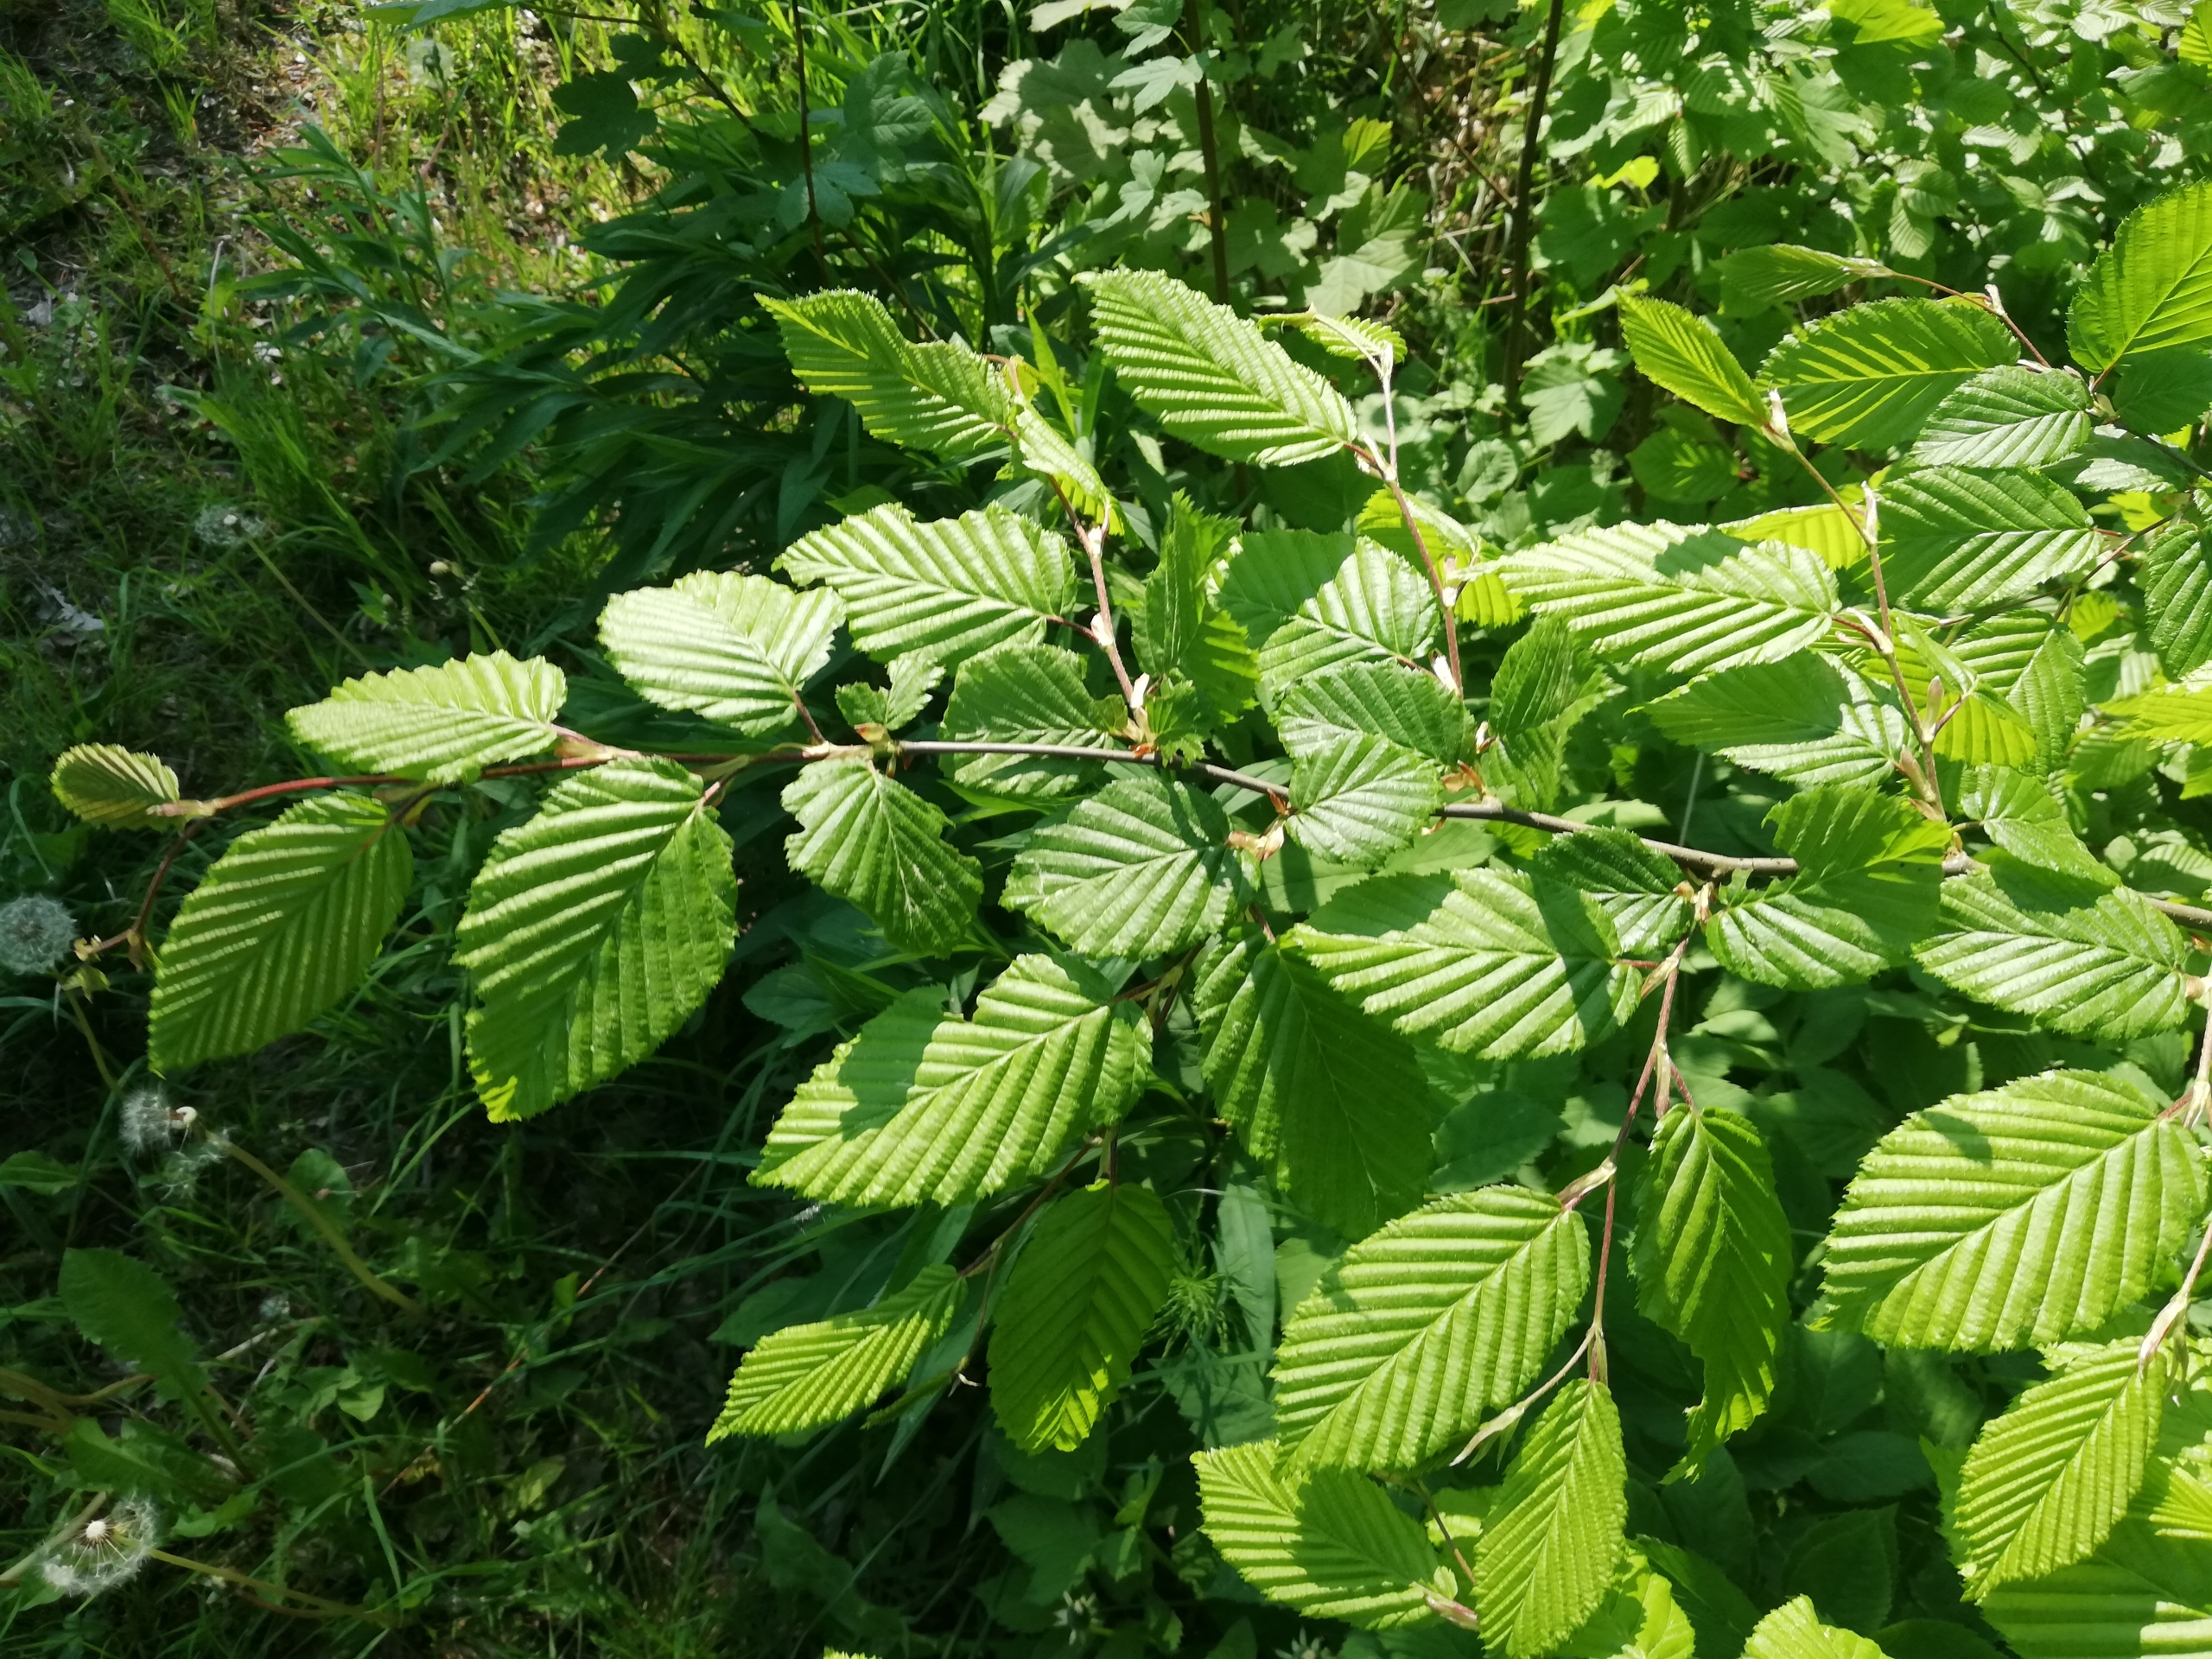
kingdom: Plantae
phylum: Tracheophyta
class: Magnoliopsida
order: Fagales
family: Betulaceae
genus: Carpinus
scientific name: Carpinus betulus
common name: Avnbøg
